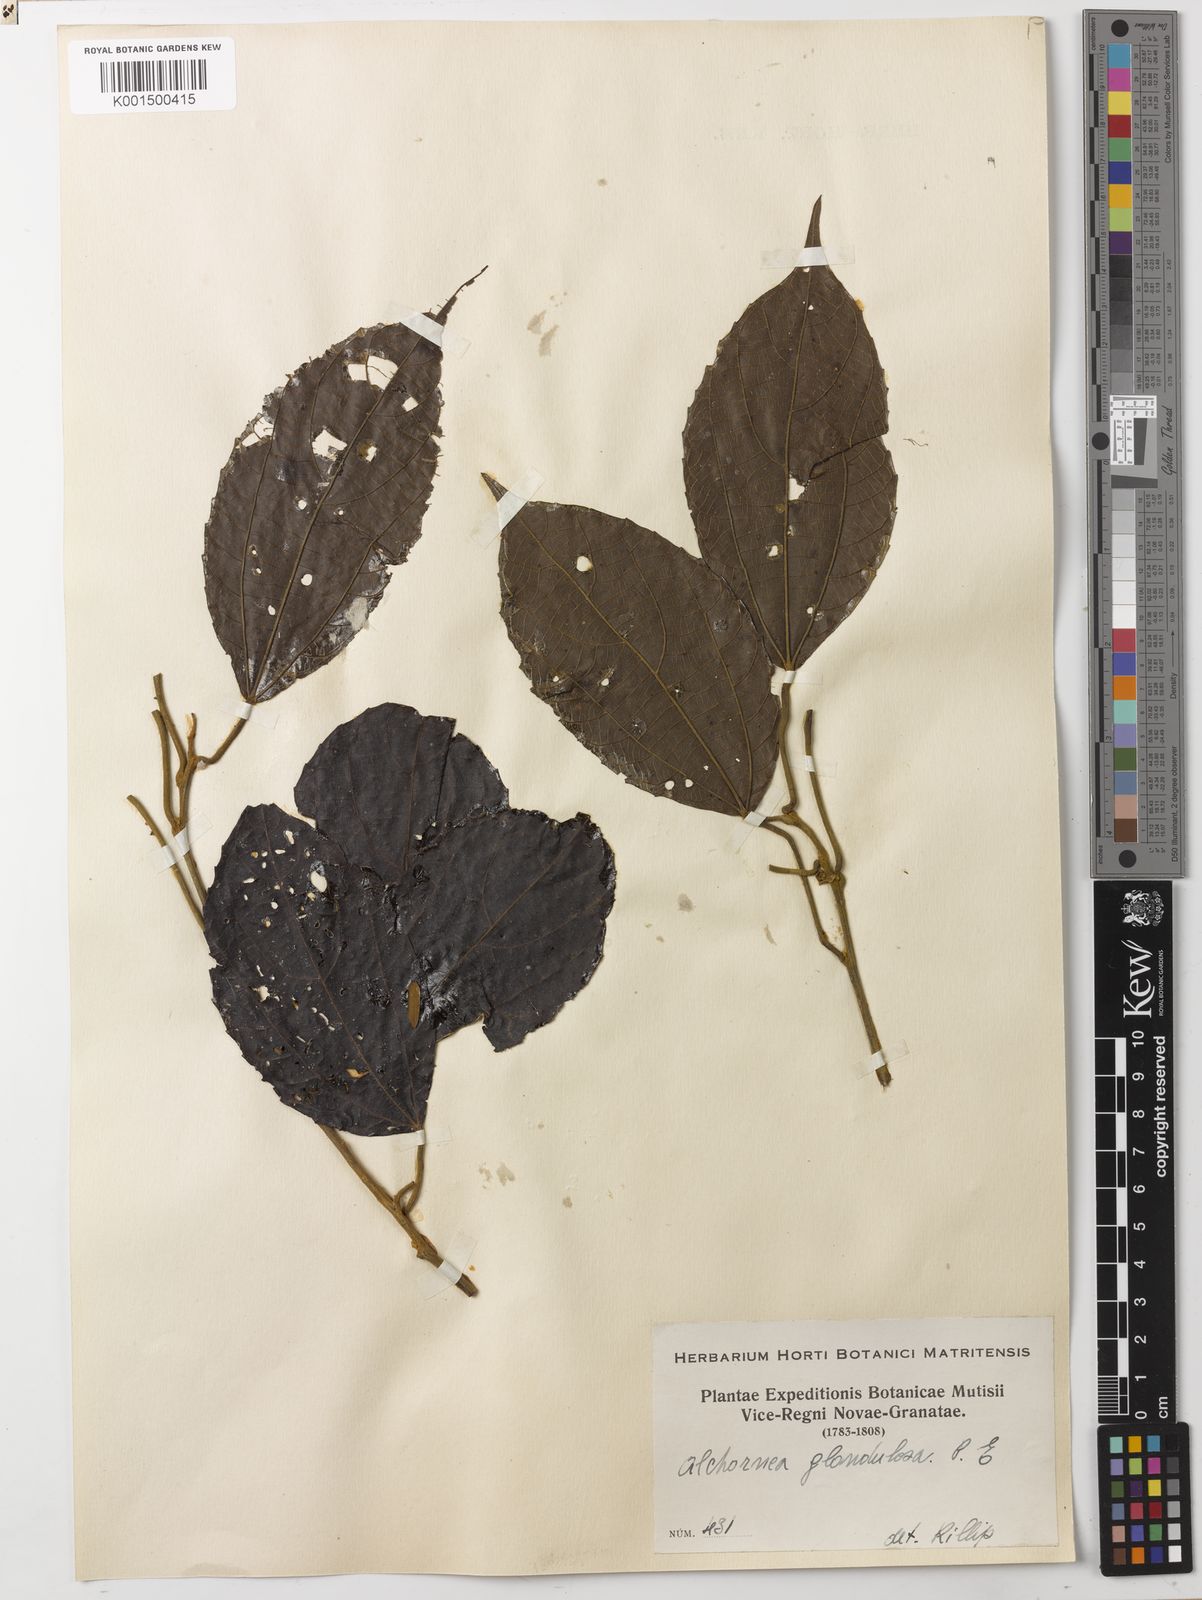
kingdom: Plantae
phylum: Tracheophyta
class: Magnoliopsida
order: Malpighiales
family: Euphorbiaceae
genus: Alchornea
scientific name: Alchornea glandulosa
